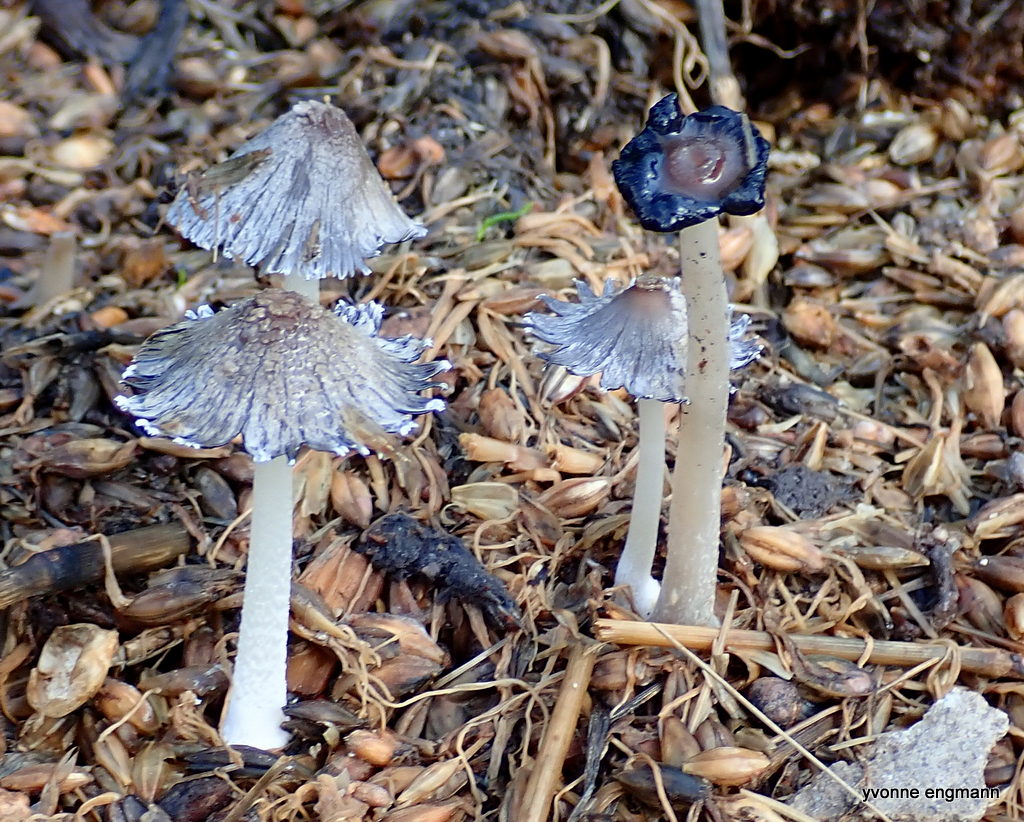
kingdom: Fungi
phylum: Basidiomycota
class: Agaricomycetes
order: Agaricales
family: Psathyrellaceae
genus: Coprinopsis
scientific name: Coprinopsis
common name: blækhat
